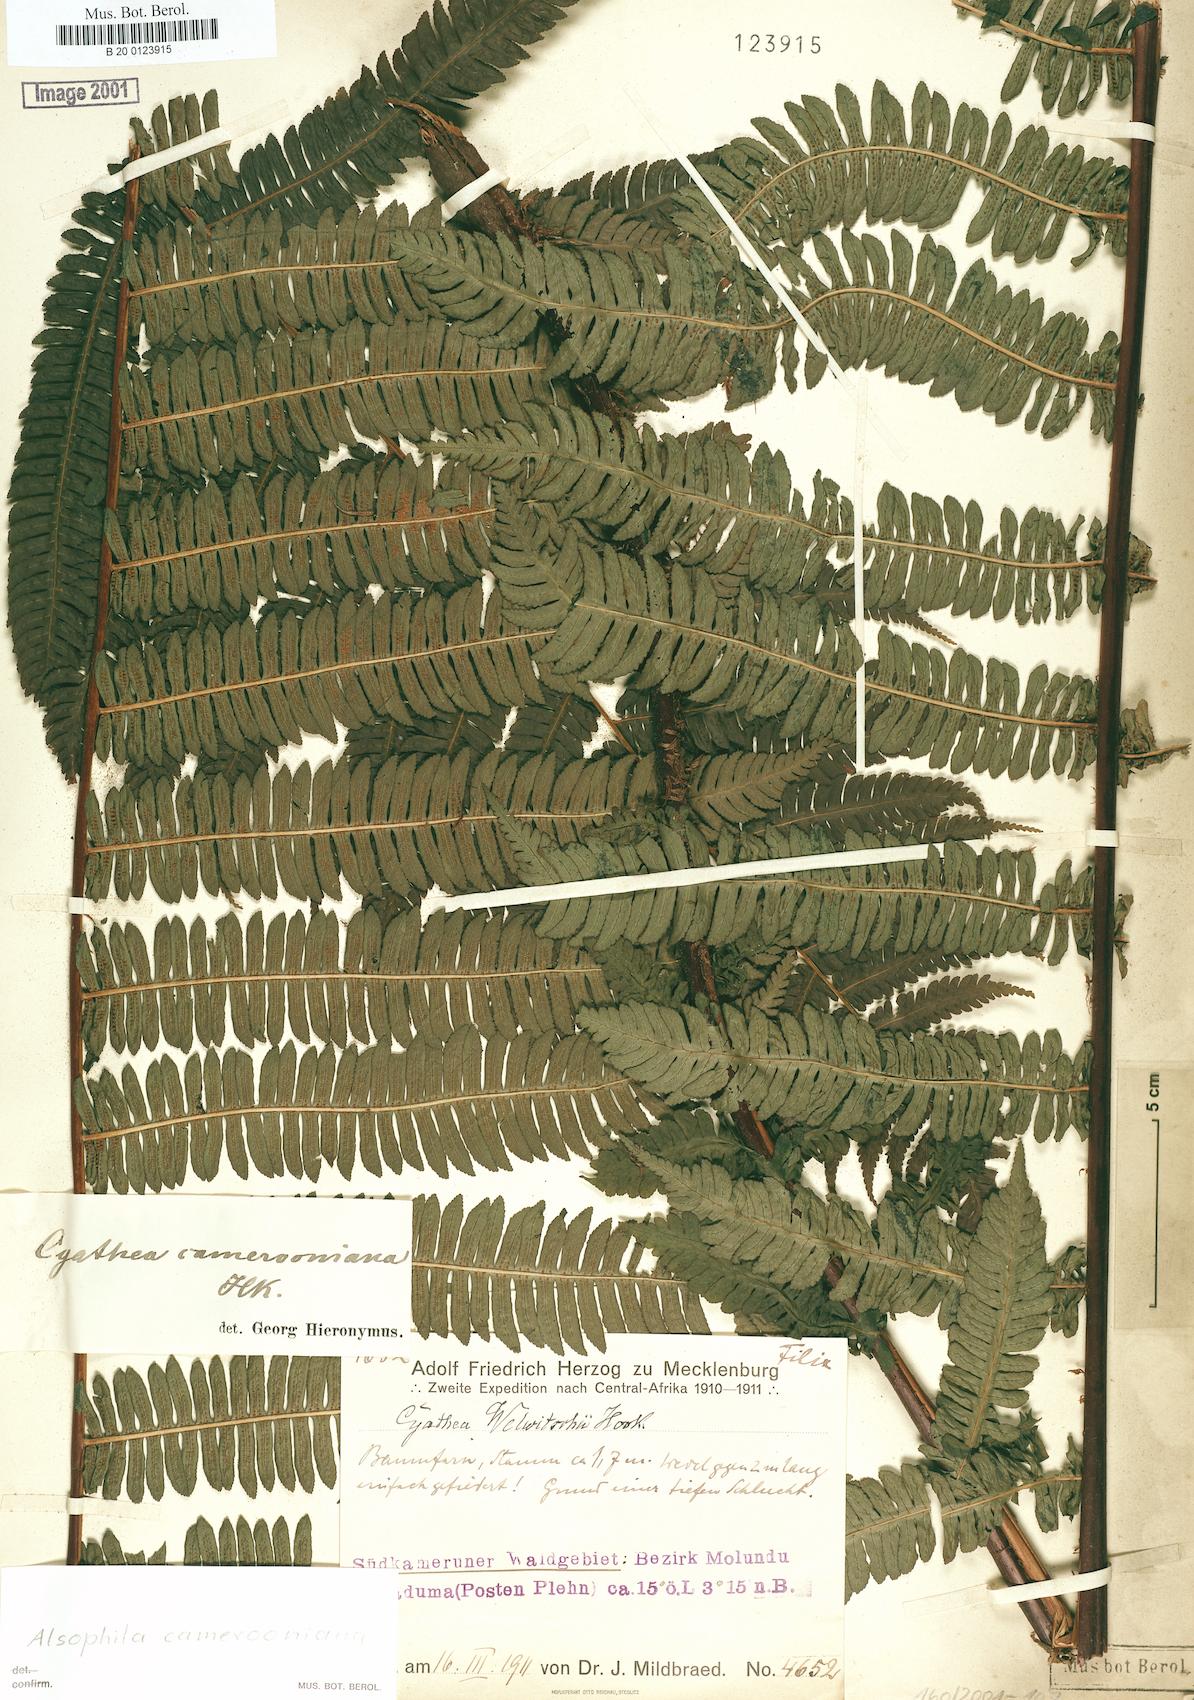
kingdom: Plantae
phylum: Tracheophyta
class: Polypodiopsida
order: Cyatheales
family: Cyatheaceae
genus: Alsophila
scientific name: Alsophila camerooniana
